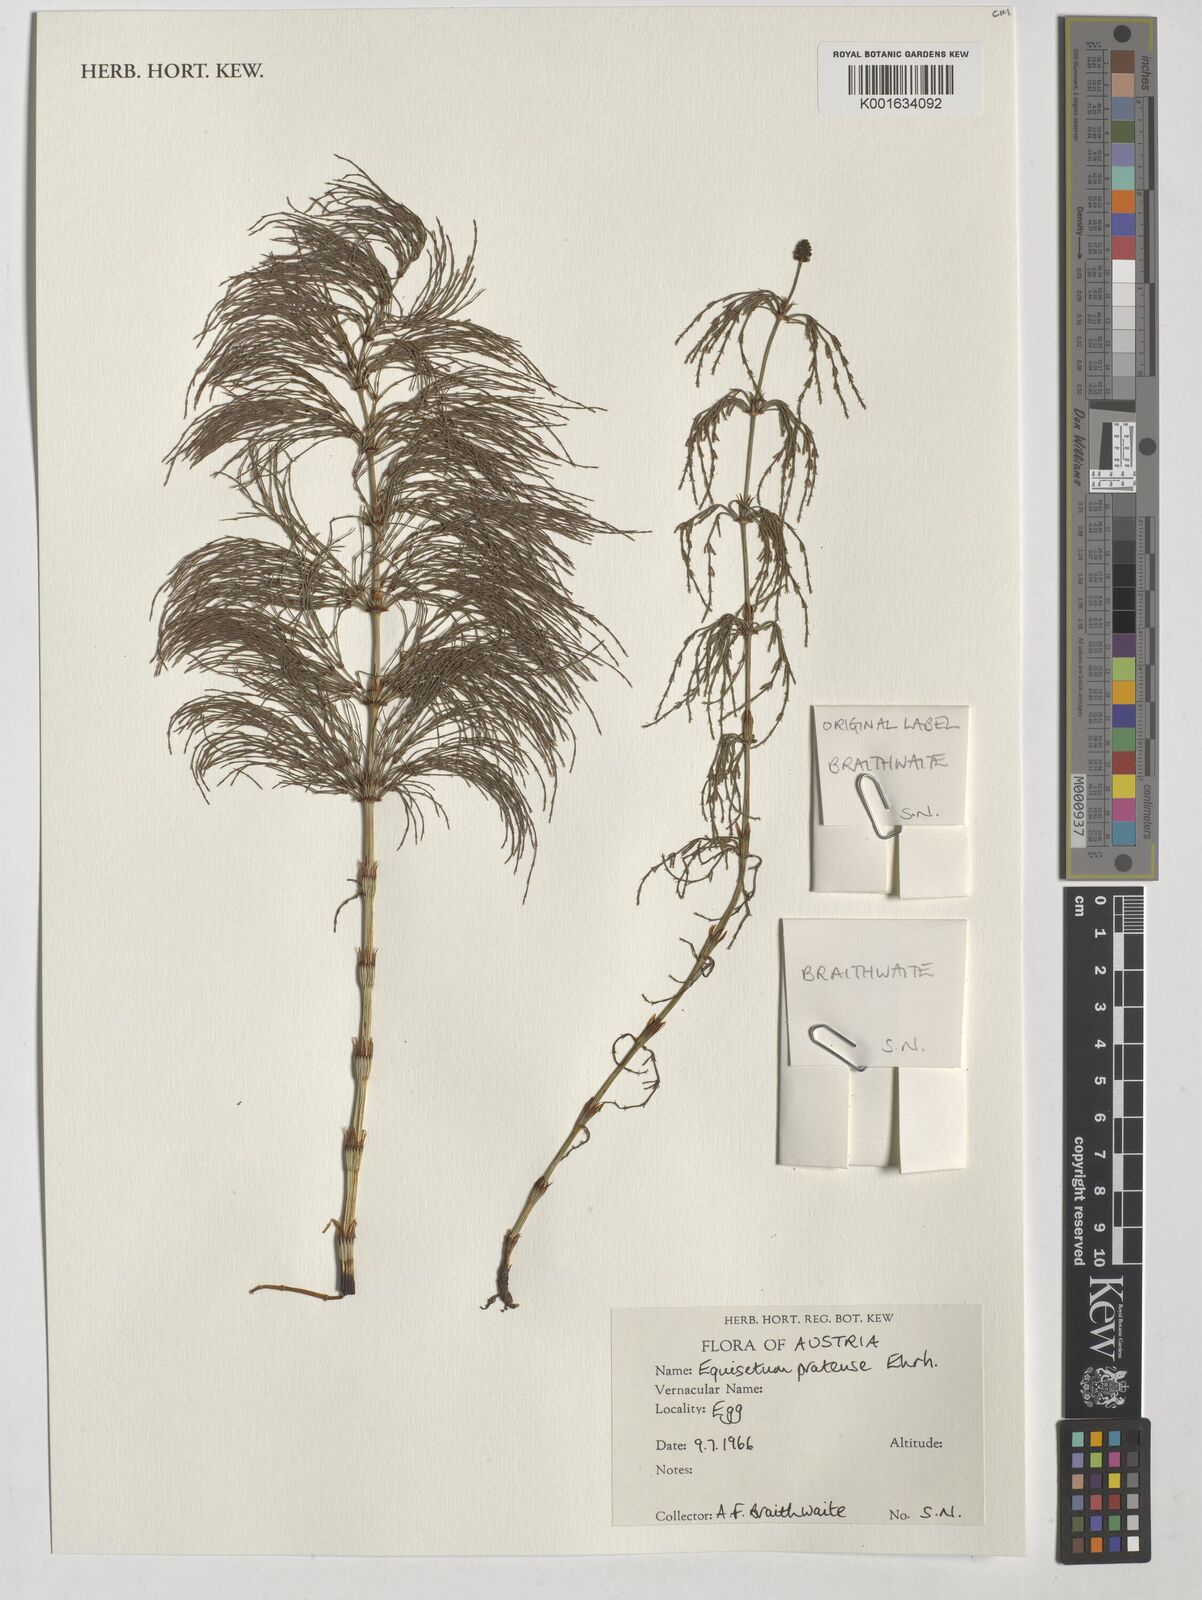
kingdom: Plantae
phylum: Tracheophyta
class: Polypodiopsida
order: Equisetales
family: Equisetaceae
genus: Equisetum
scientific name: Equisetum pratense
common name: Meadow horsetail
